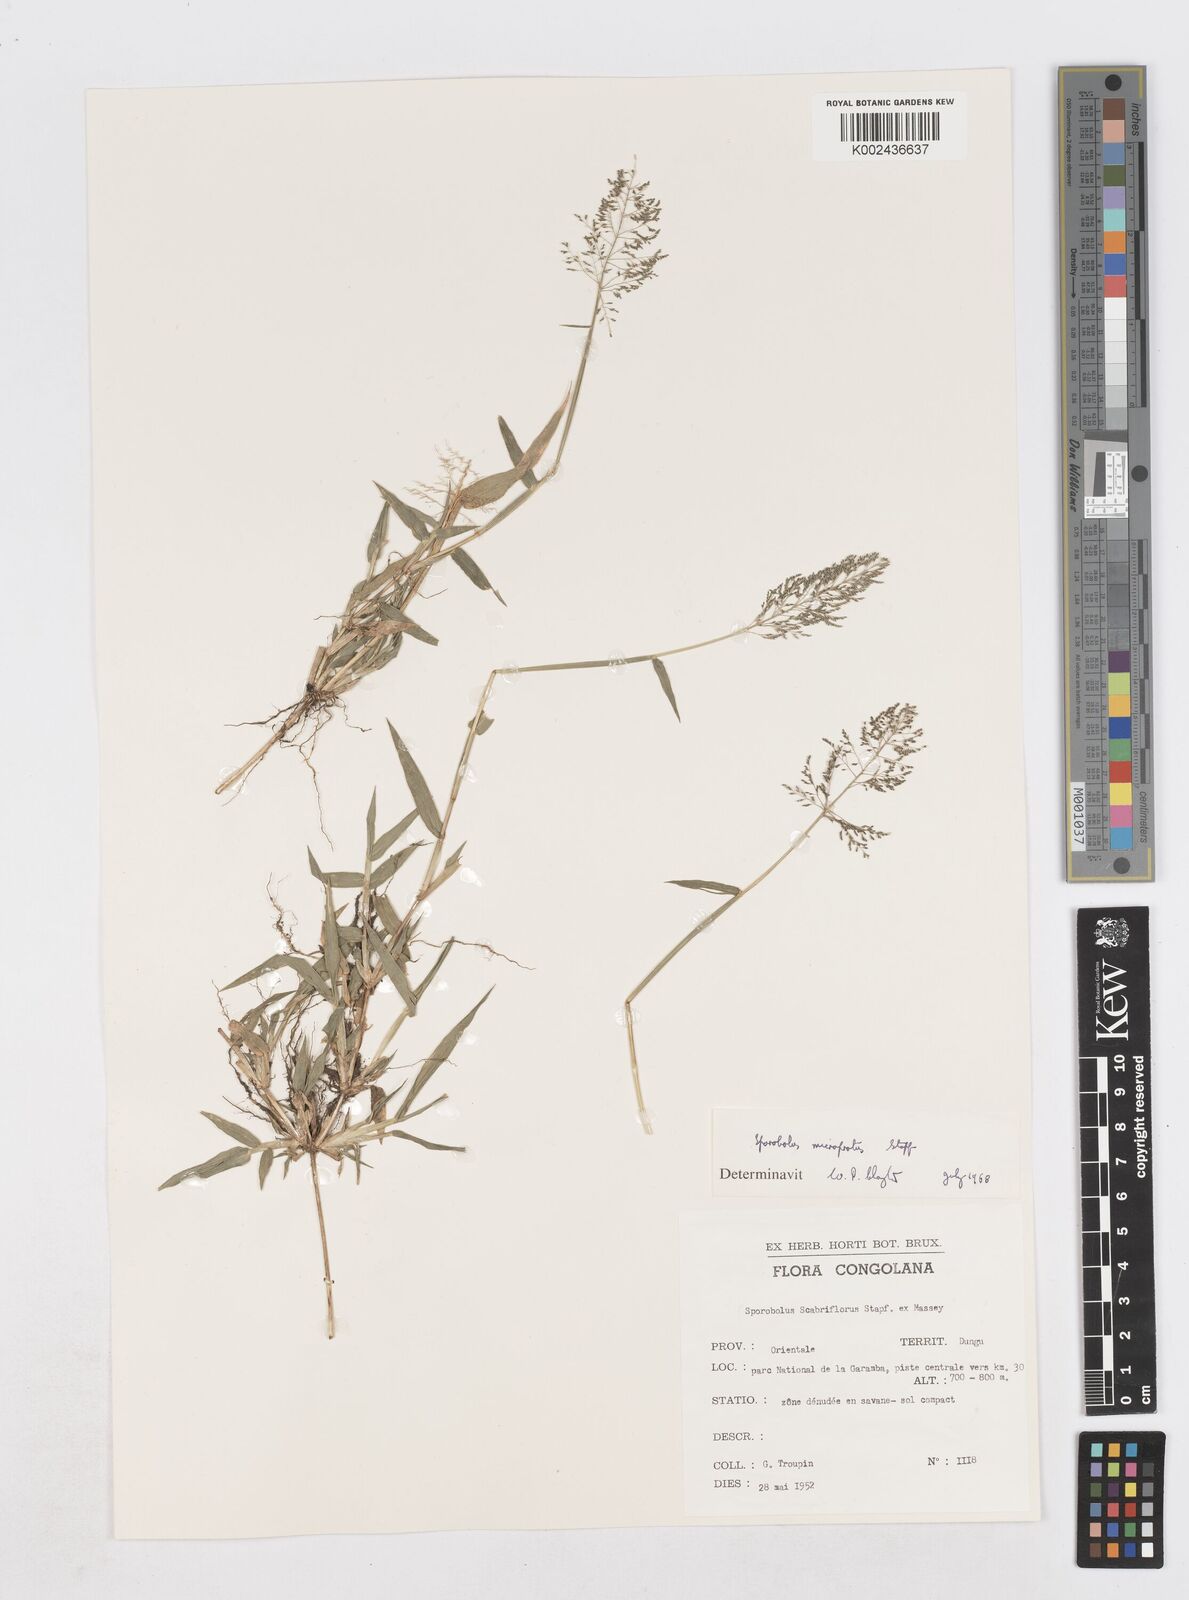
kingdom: Plantae
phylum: Tracheophyta
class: Liliopsida
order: Poales
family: Poaceae
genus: Sporobolus
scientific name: Sporobolus microprotus
